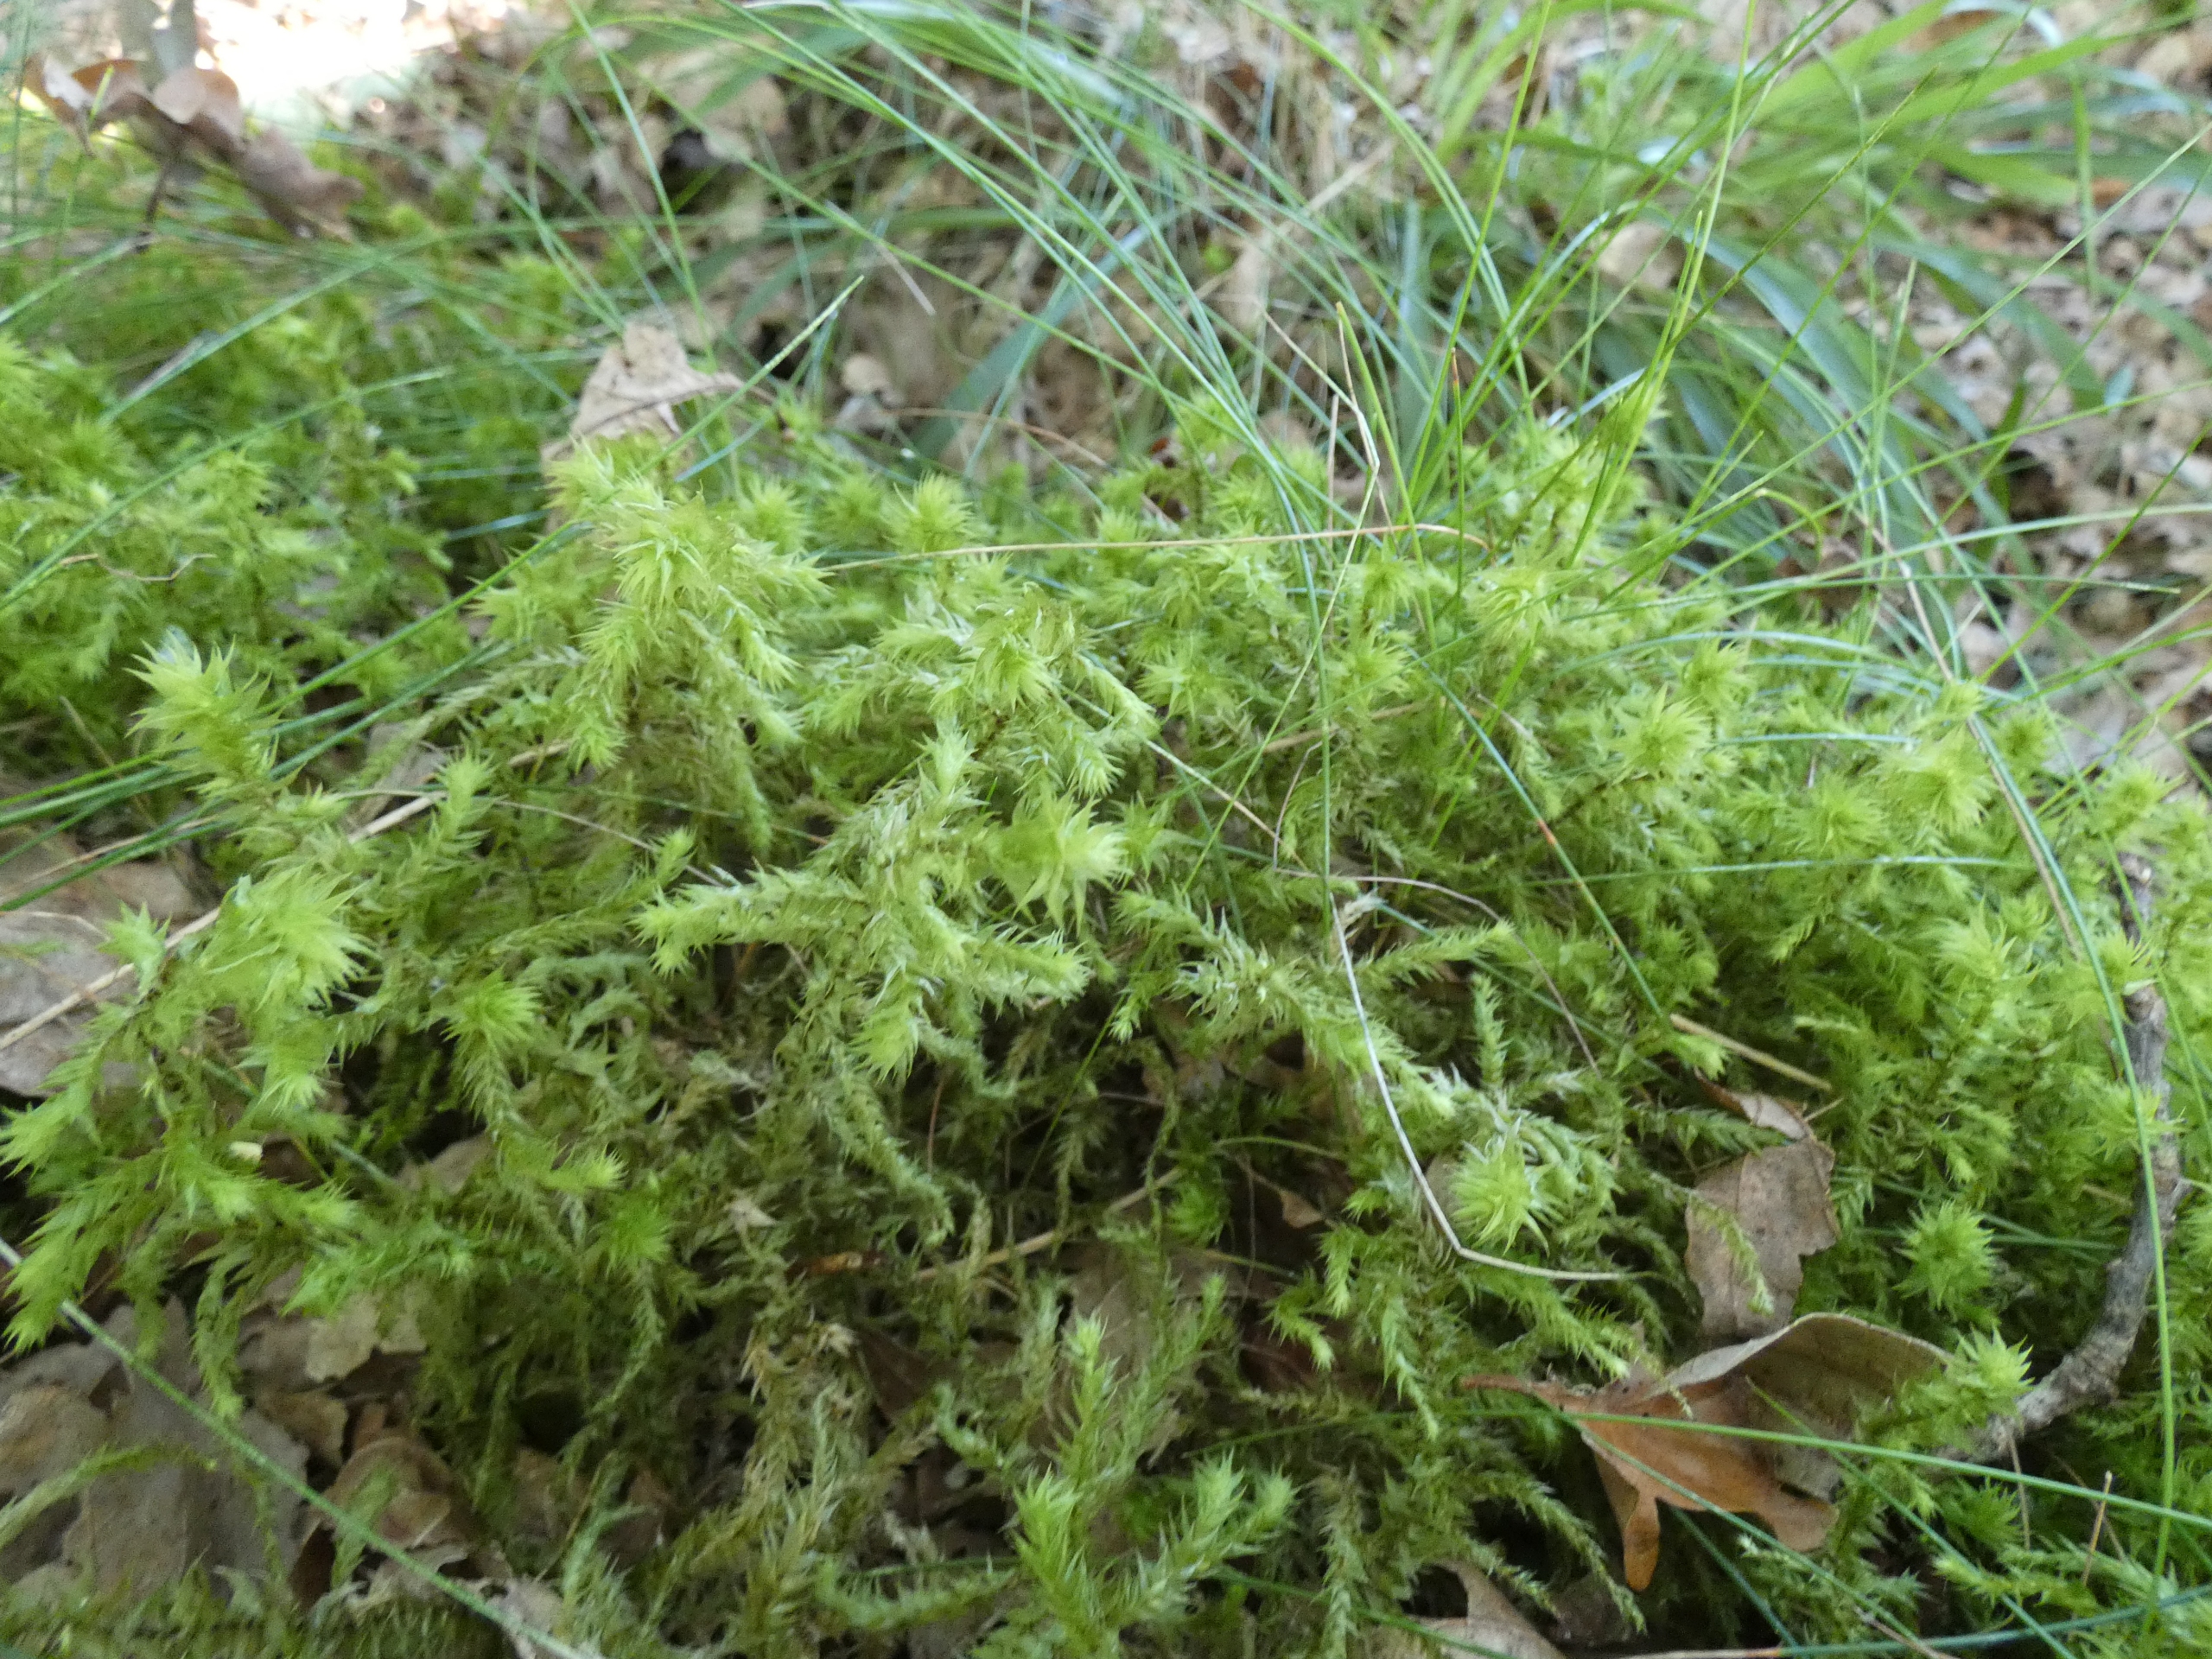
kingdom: Plantae
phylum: Bryophyta
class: Bryopsida
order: Hypnales
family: Hylocomiaceae
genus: Hylocomiadelphus
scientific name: Hylocomiadelphus triquetrus
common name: Stor kransemos
